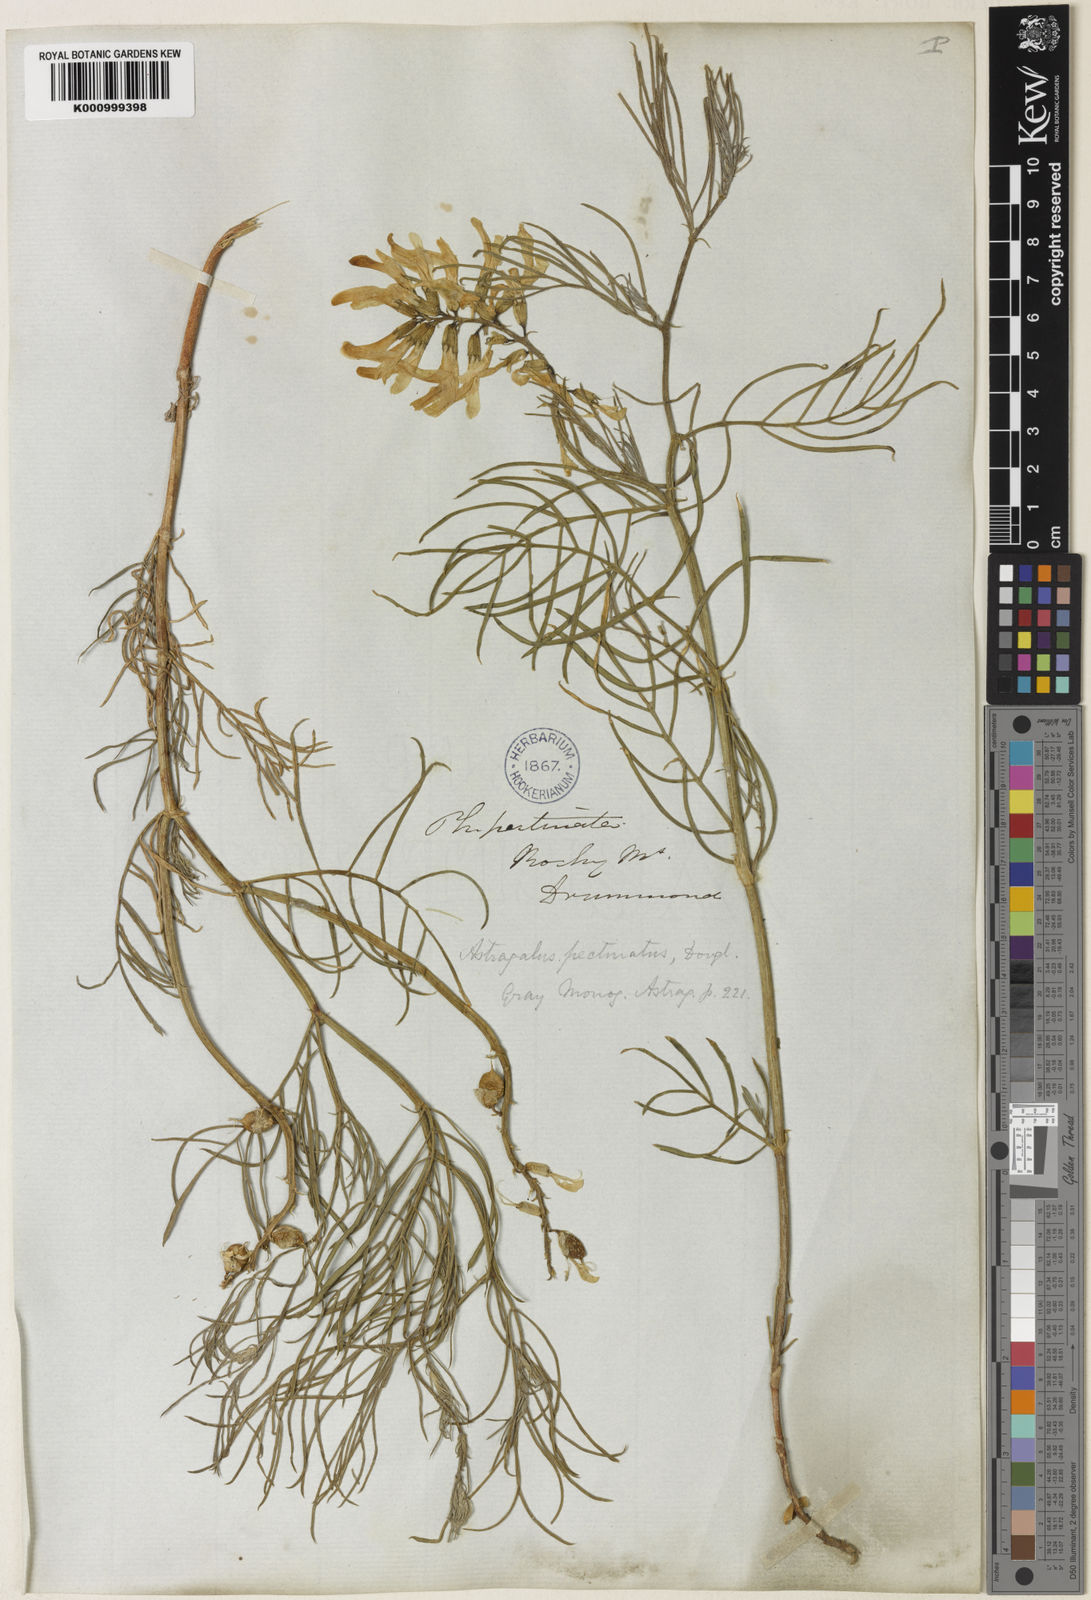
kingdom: Plantae
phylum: Tracheophyta
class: Magnoliopsida
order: Fabales
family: Fabaceae
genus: Astragalus
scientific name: Astragalus pectinatus
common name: Tine-leaf milk-vetch
